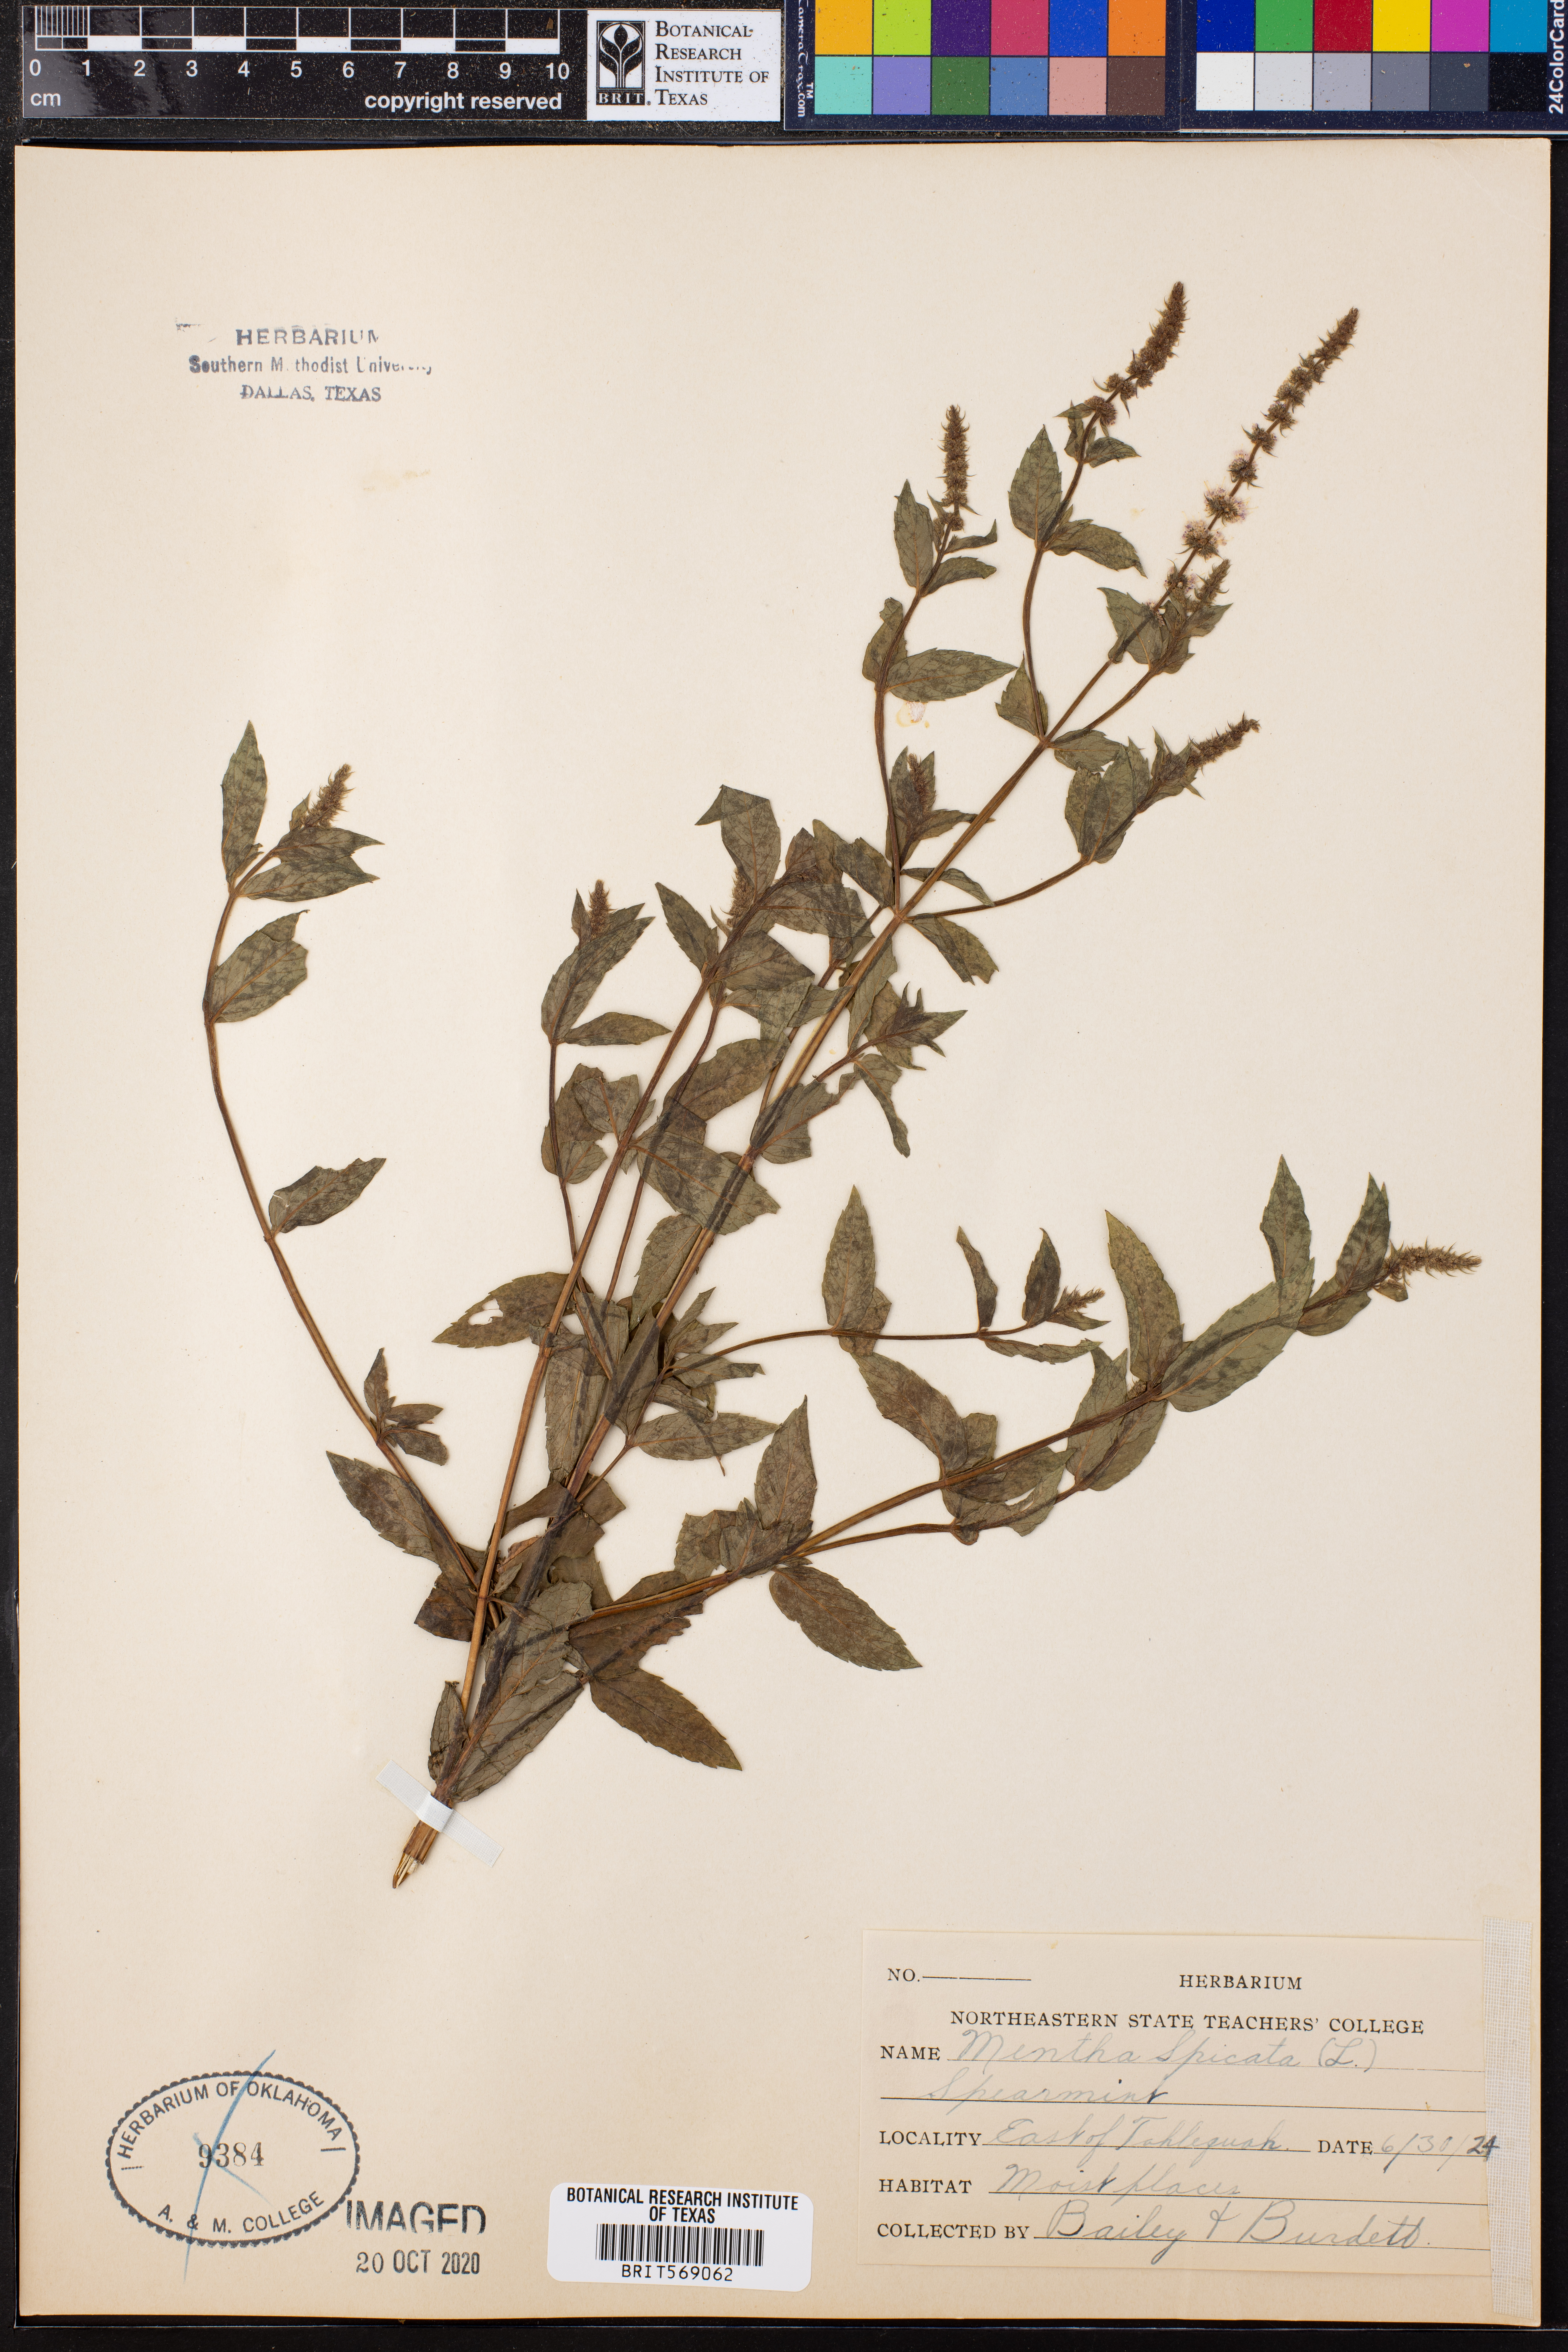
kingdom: Plantae
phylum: Tracheophyta
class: Magnoliopsida
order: Lamiales
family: Lamiaceae
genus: Mentha
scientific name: Mentha spicata
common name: Spearmint
